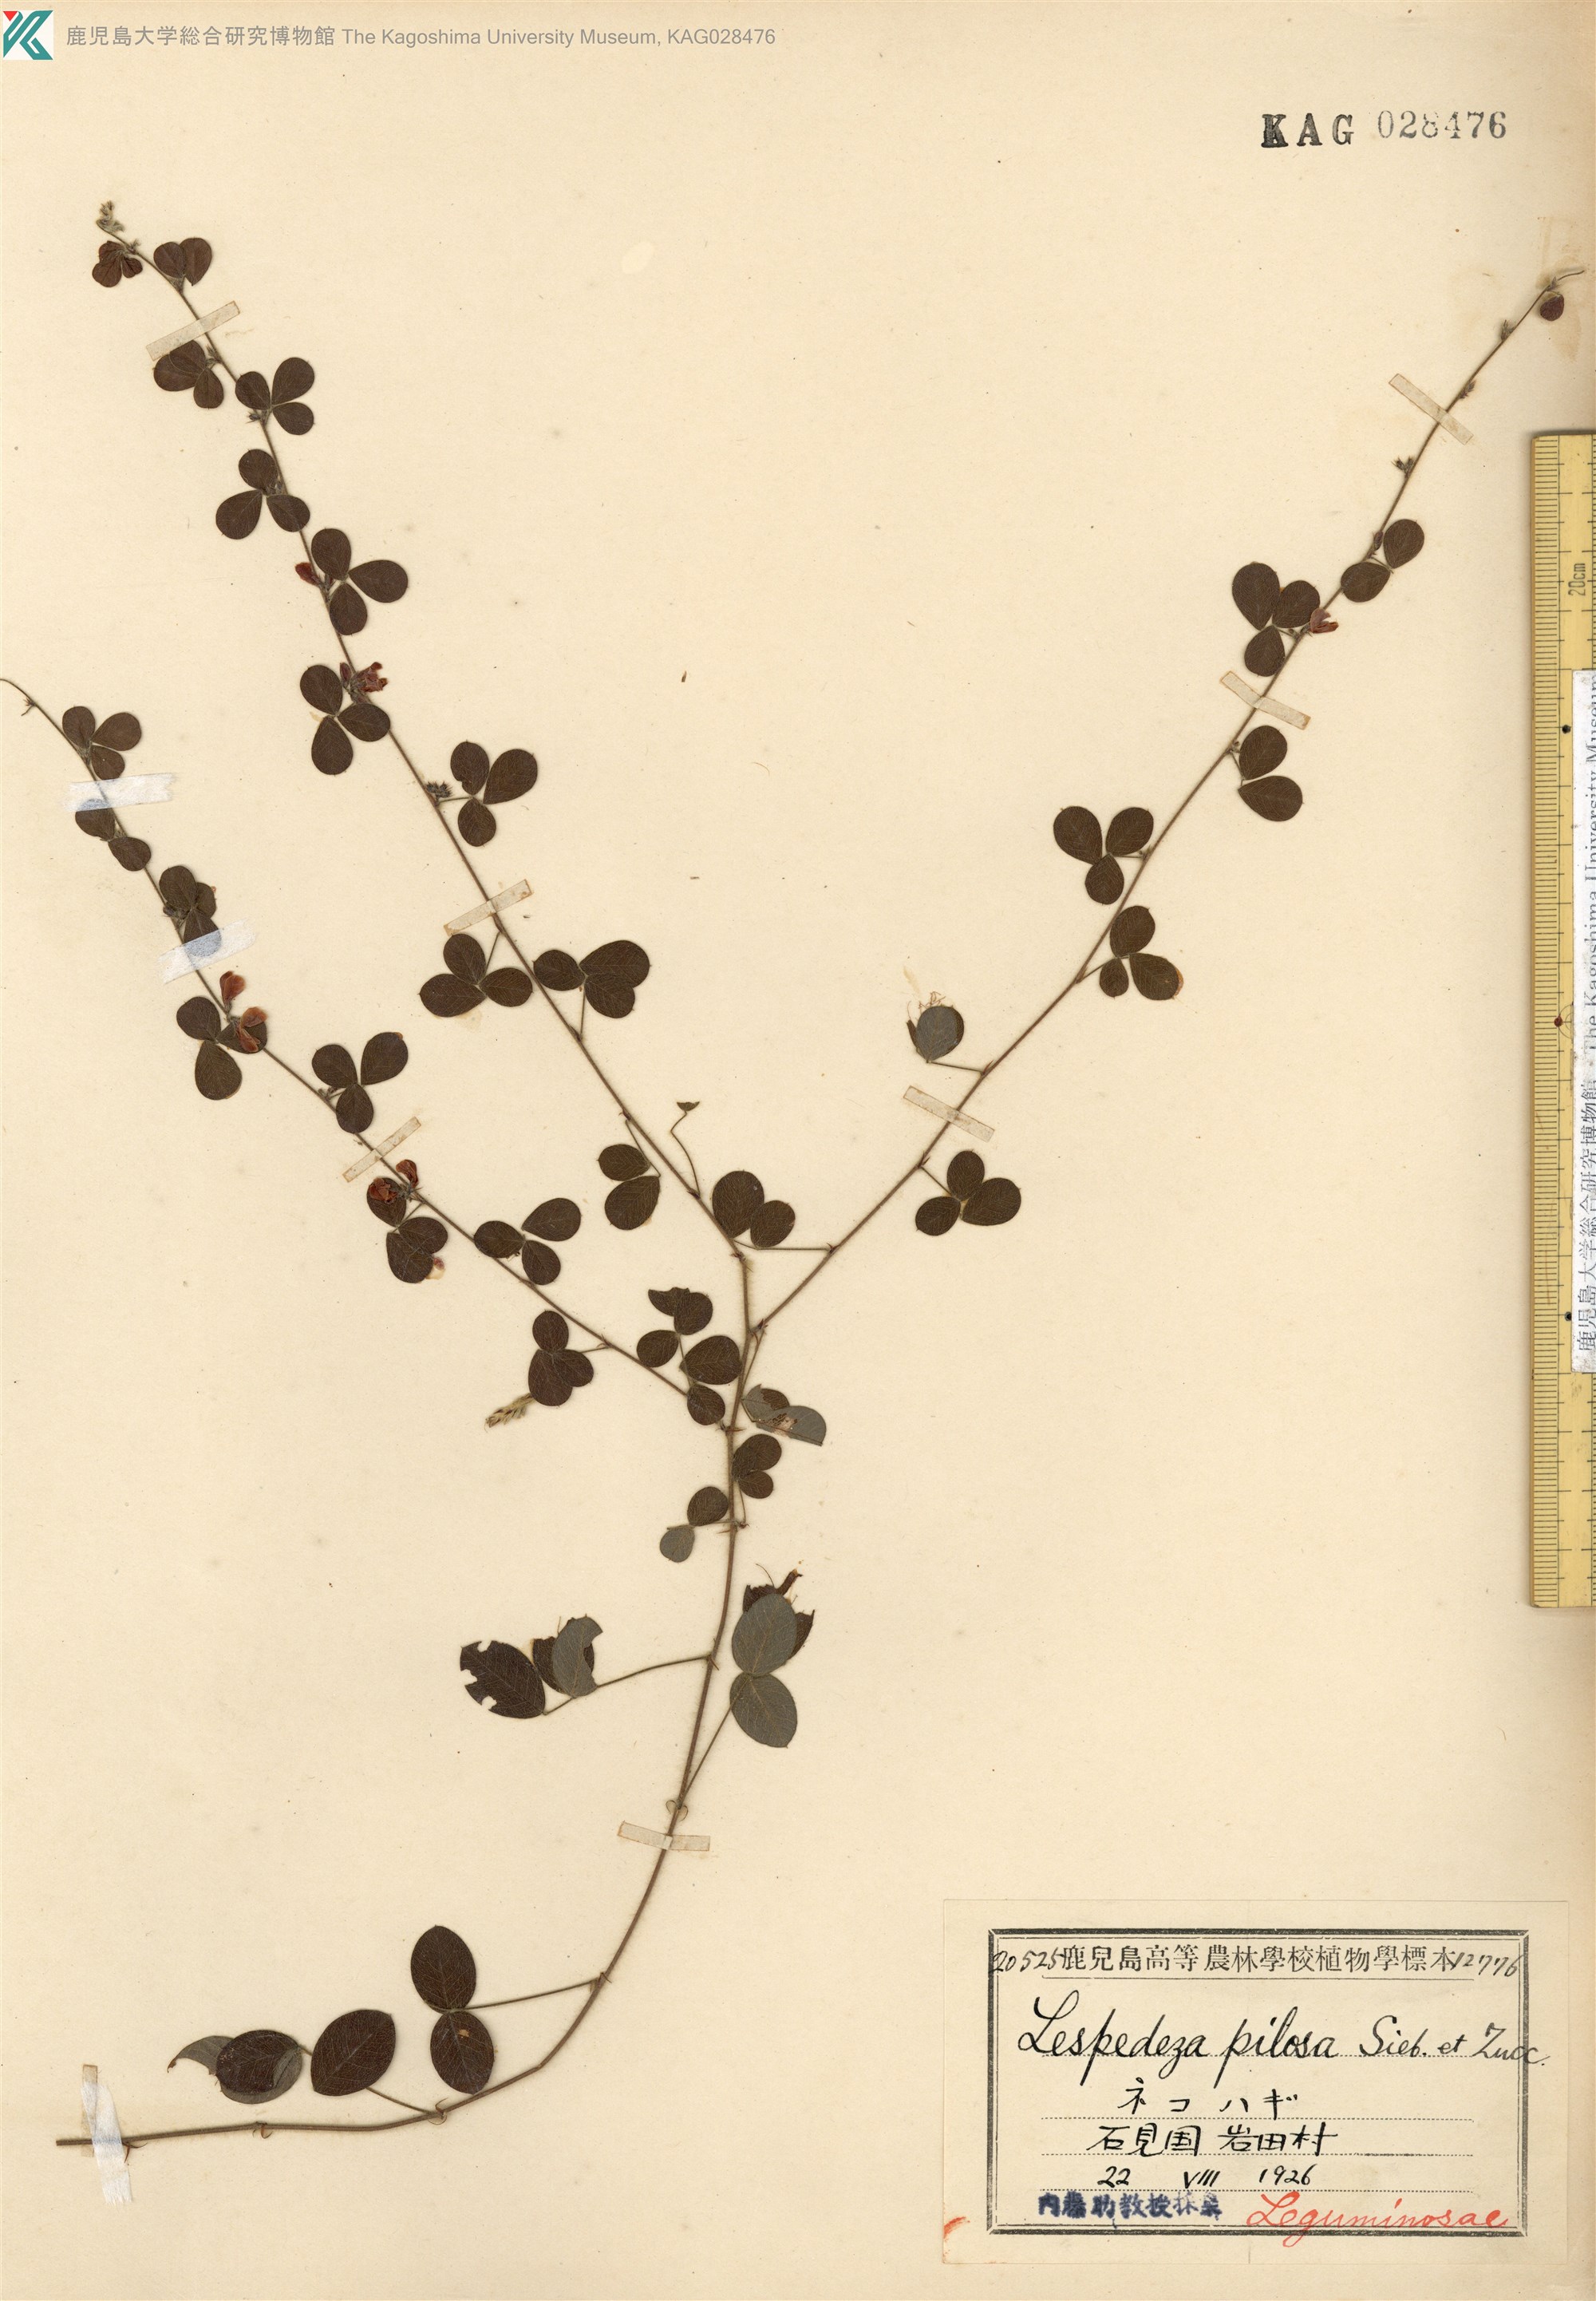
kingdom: Plantae
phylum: Tracheophyta
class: Magnoliopsida
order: Fabales
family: Fabaceae
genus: Lespedeza
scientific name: Lespedeza pilosa
